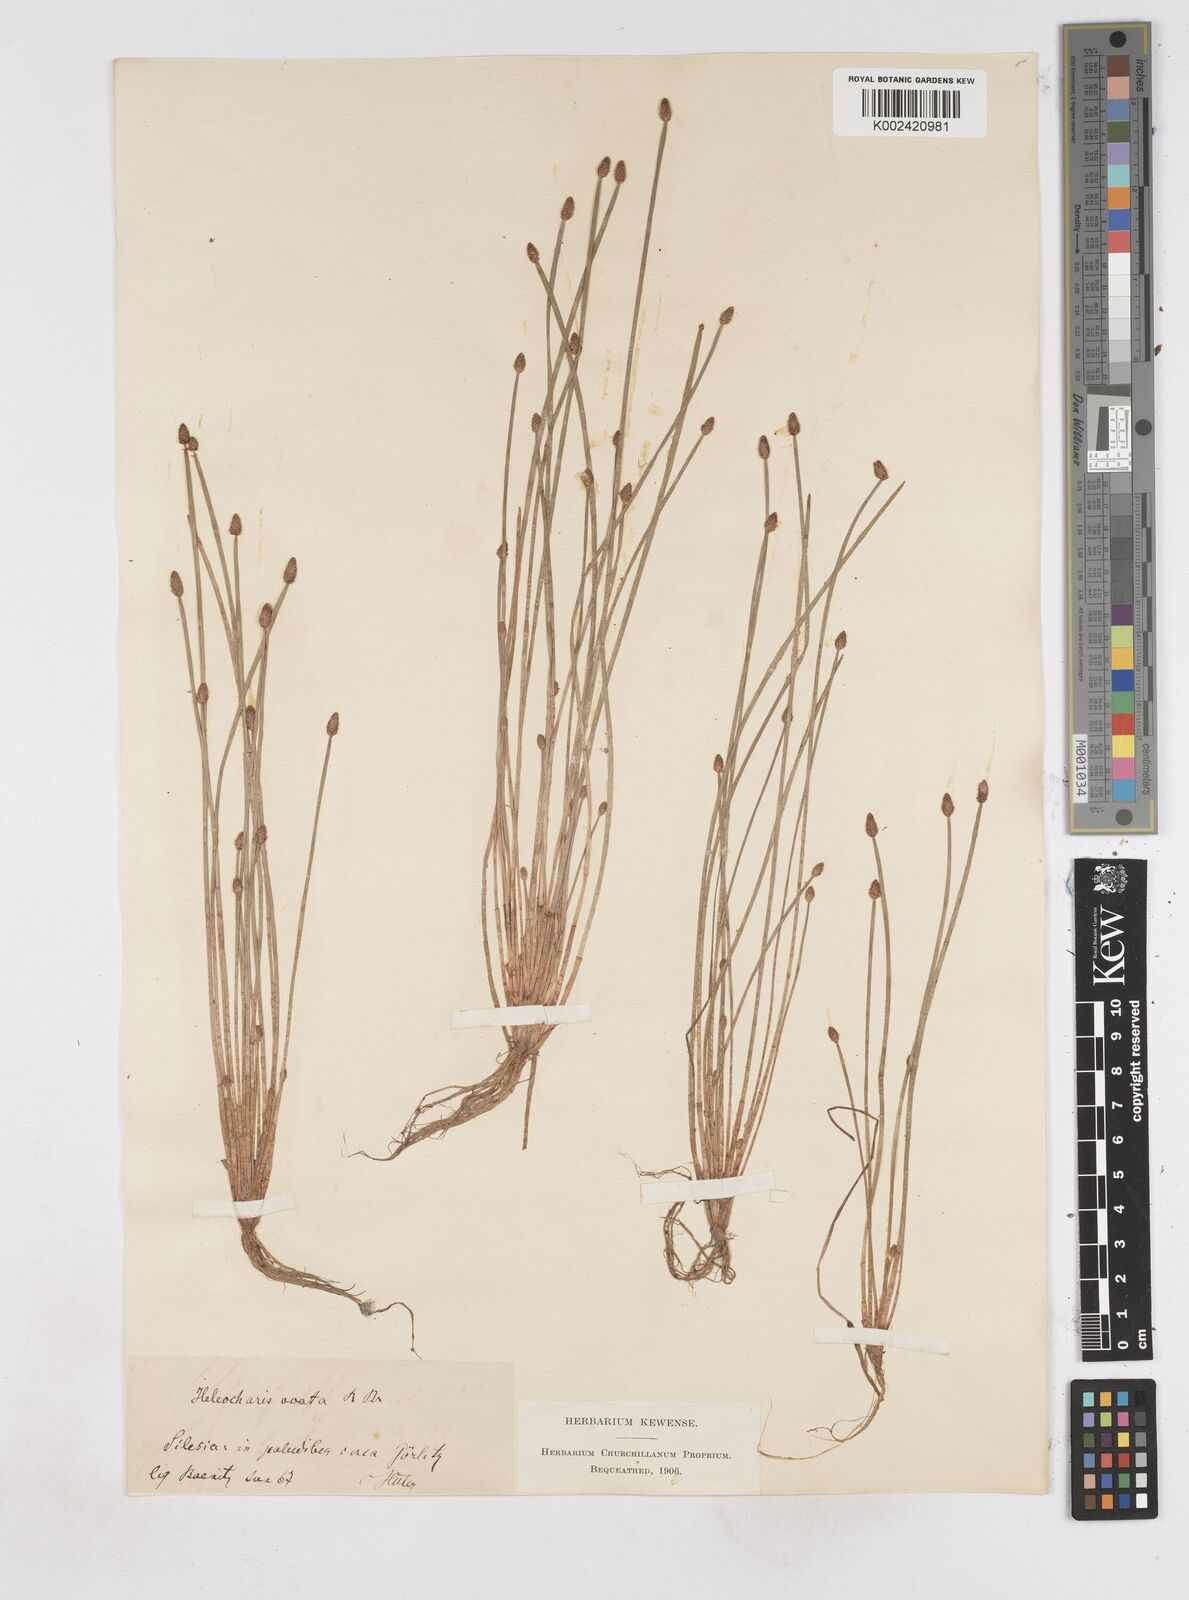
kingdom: Plantae
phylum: Tracheophyta
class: Liliopsida
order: Poales
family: Cyperaceae
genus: Eleocharis
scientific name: Eleocharis ovata
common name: Oval spike-rush
